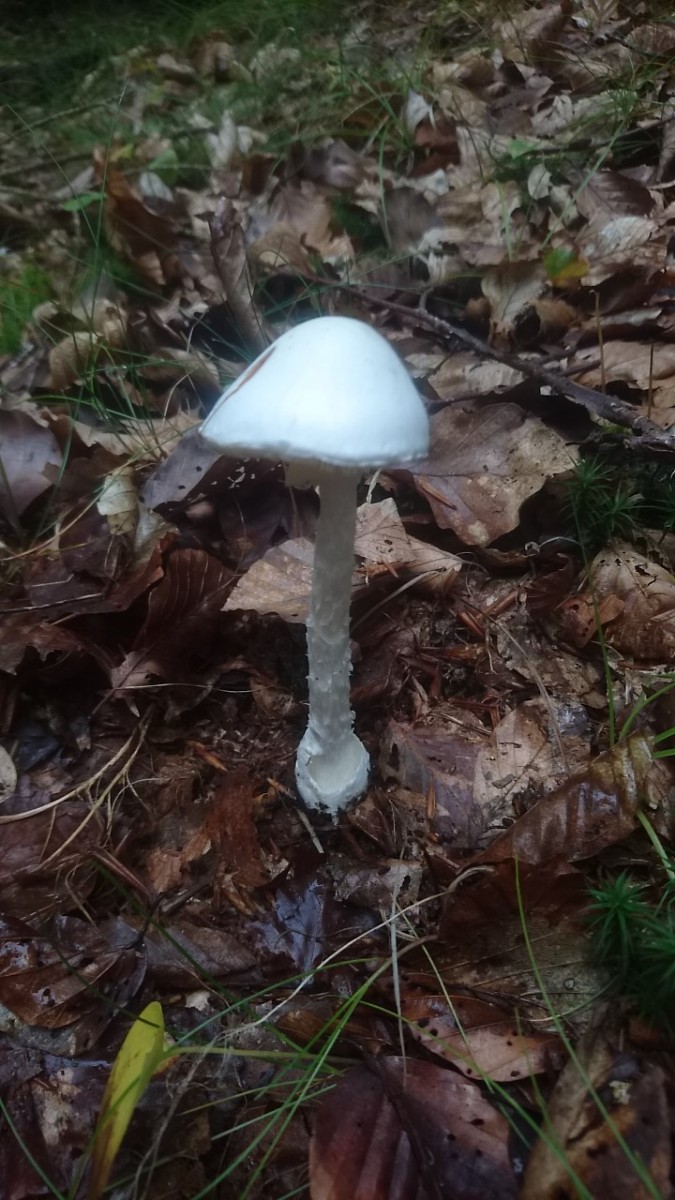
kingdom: Fungi
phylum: Basidiomycota
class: Agaricomycetes
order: Agaricales
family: Amanitaceae
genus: Amanita
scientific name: Amanita virosa
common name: snehvid fluesvamp
